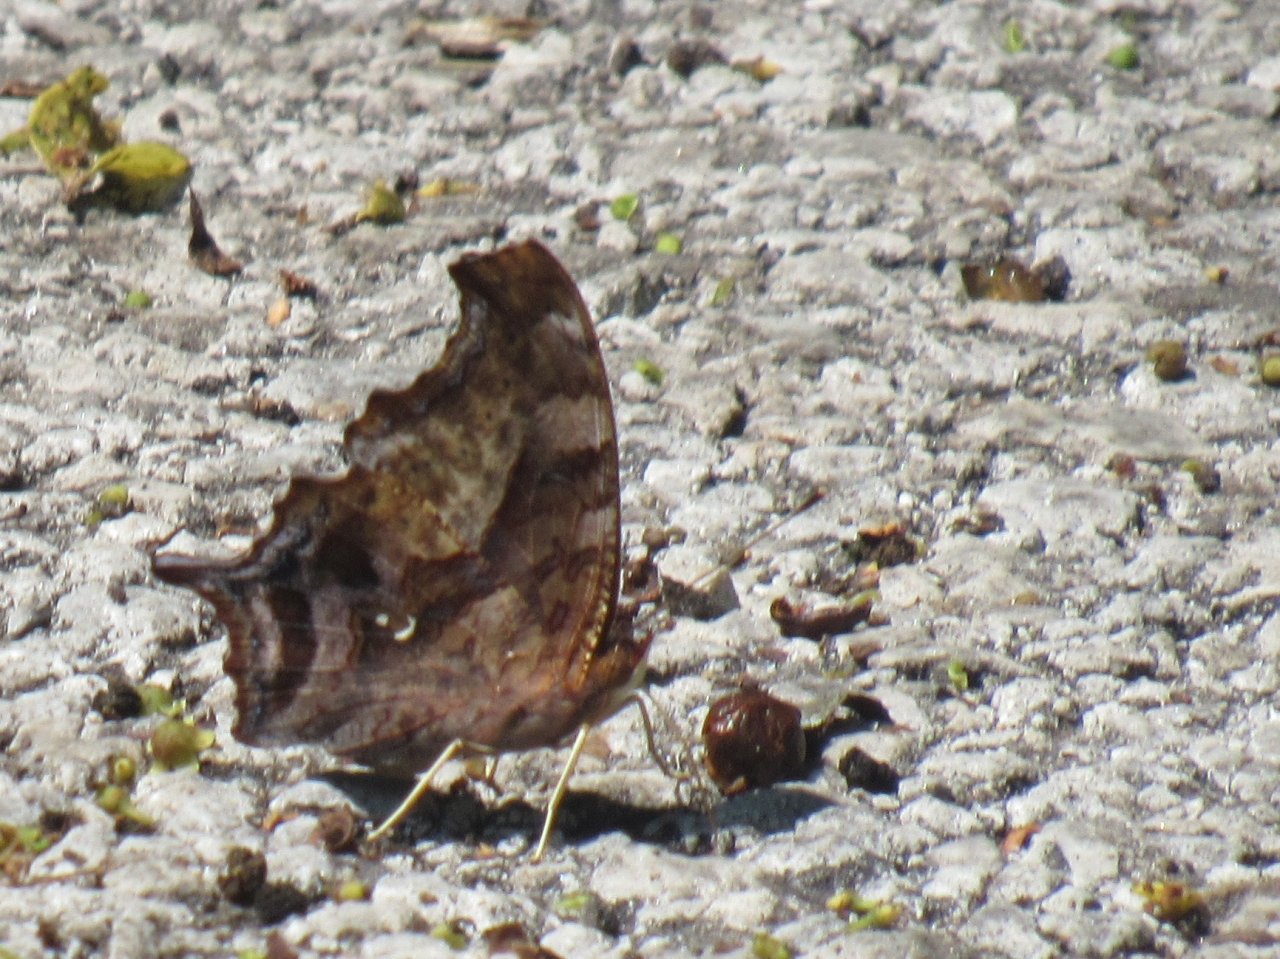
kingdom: Animalia
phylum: Arthropoda
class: Insecta
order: Lepidoptera
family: Nymphalidae
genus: Polygonia
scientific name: Polygonia interrogationis
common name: Question Mark
